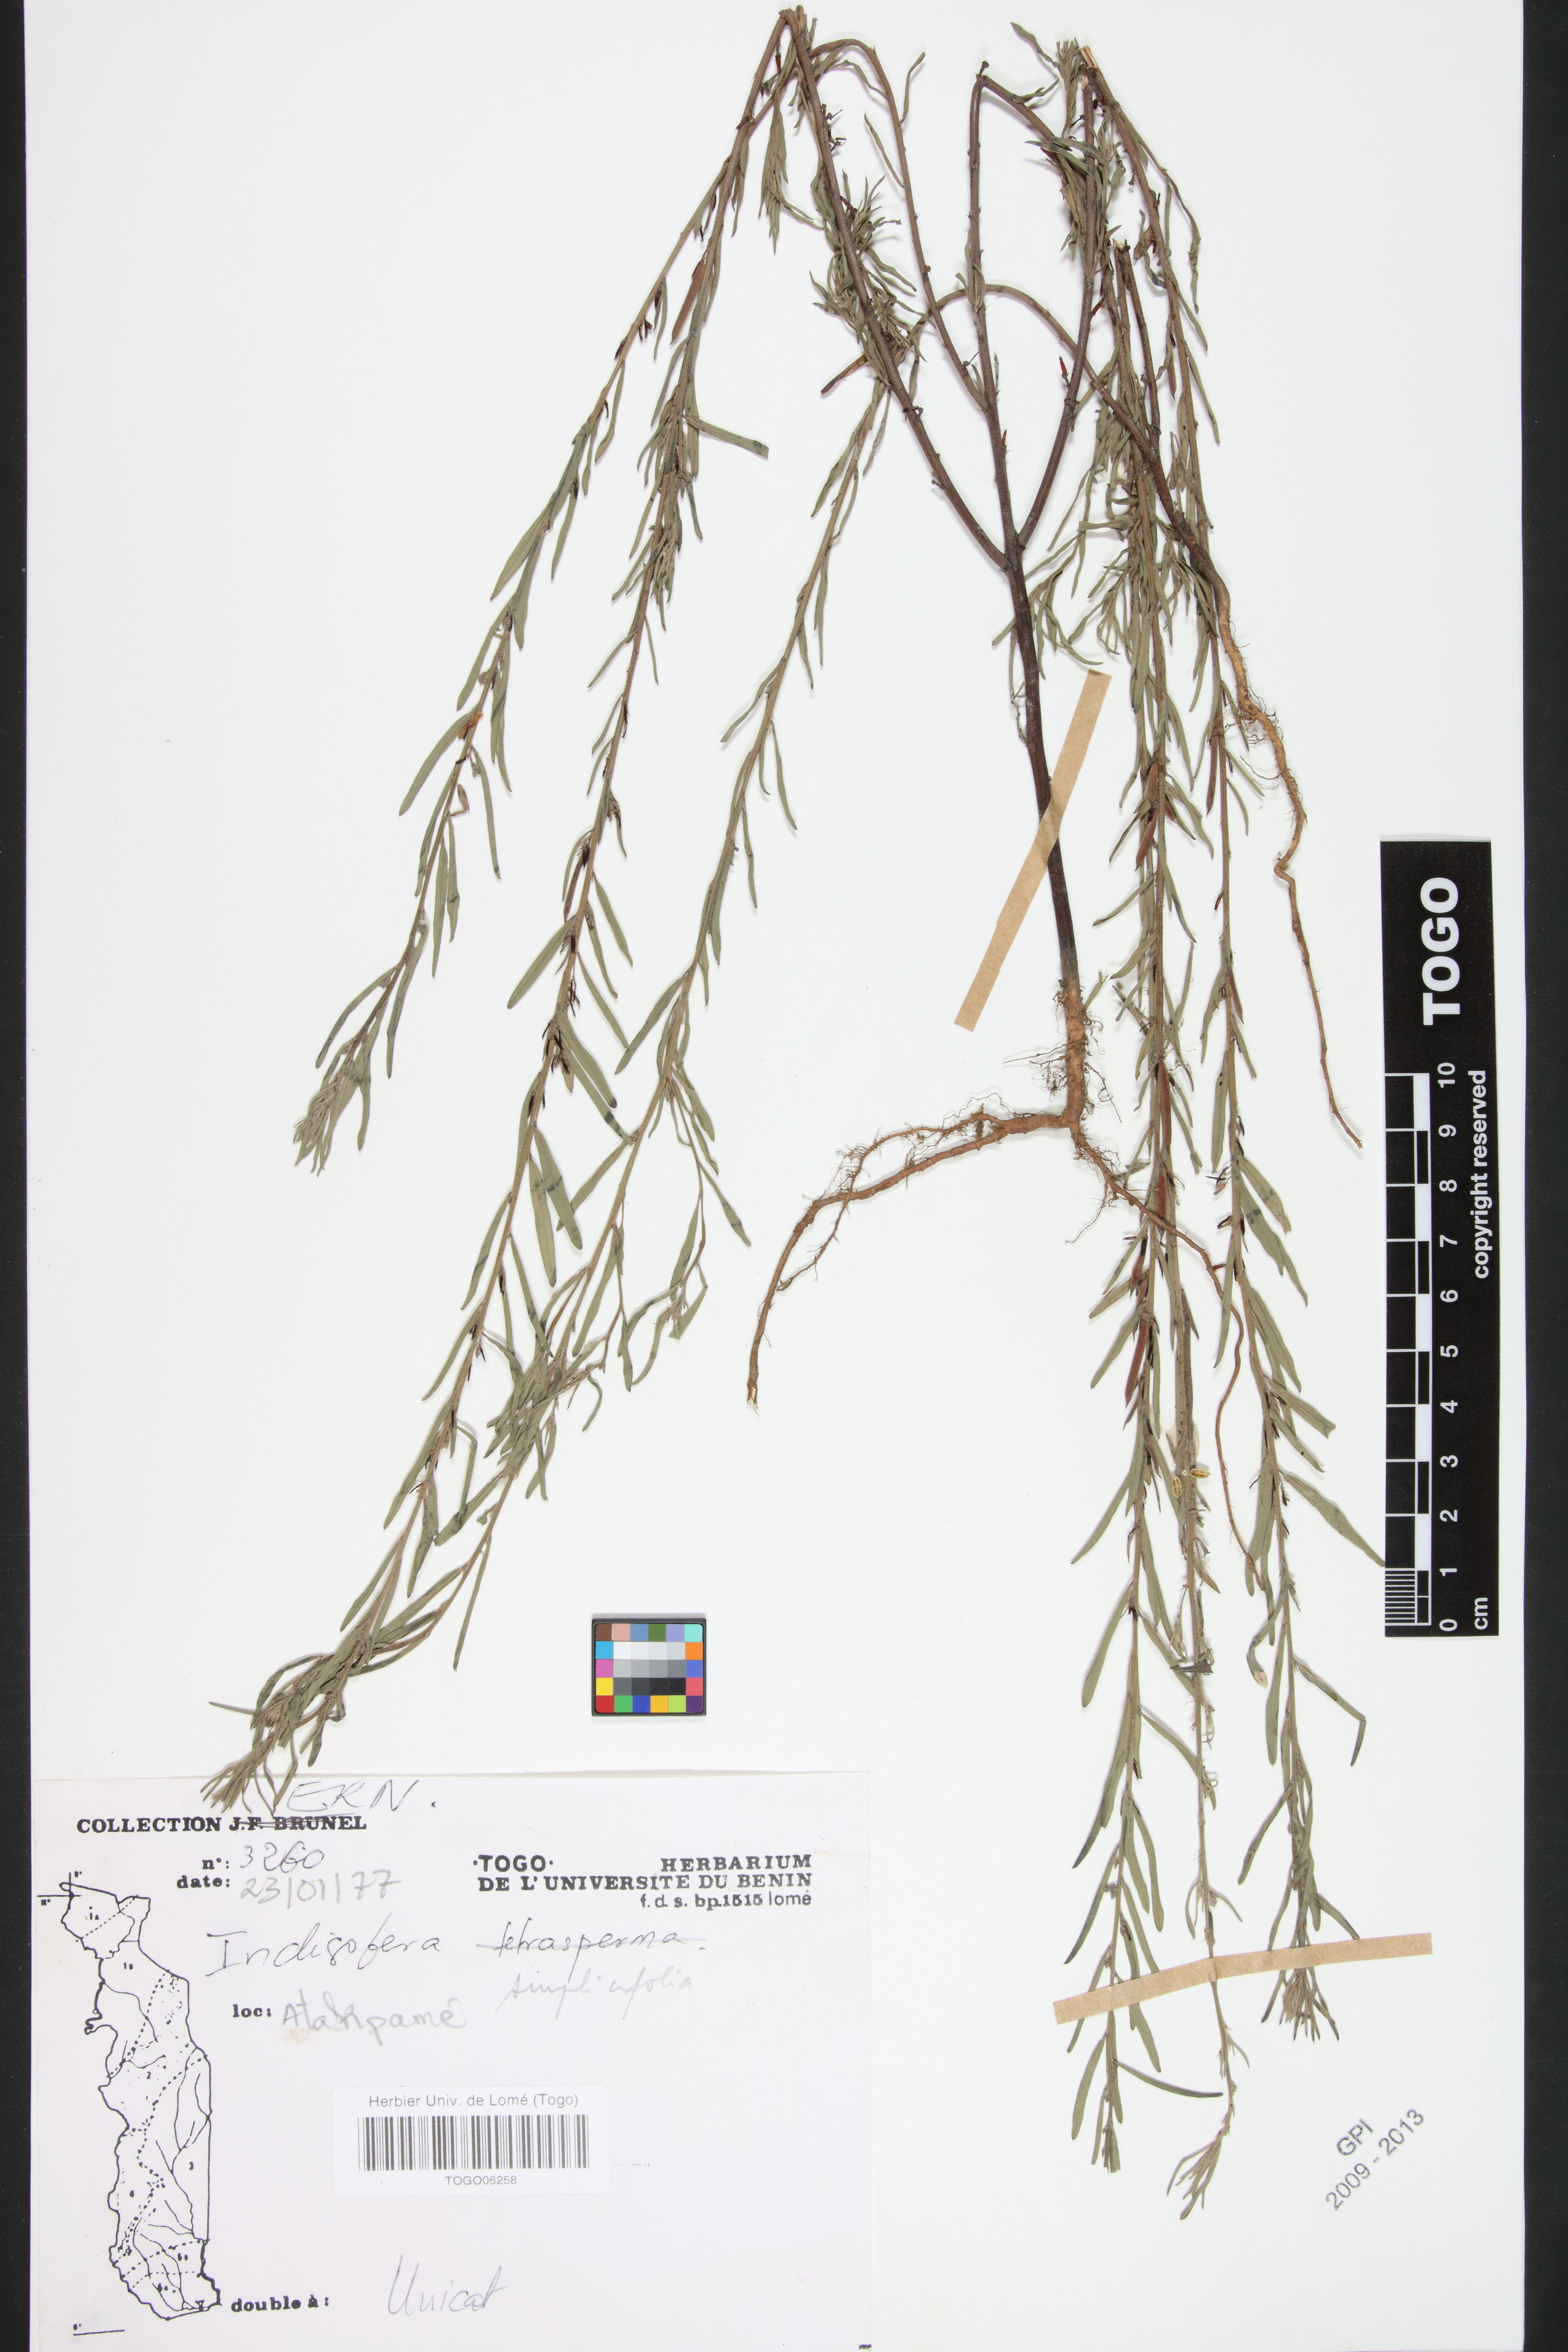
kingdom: Plantae
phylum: Tracheophyta
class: Magnoliopsida
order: Fabales
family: Fabaceae
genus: Indigofera
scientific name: Indigofera leprieurii
